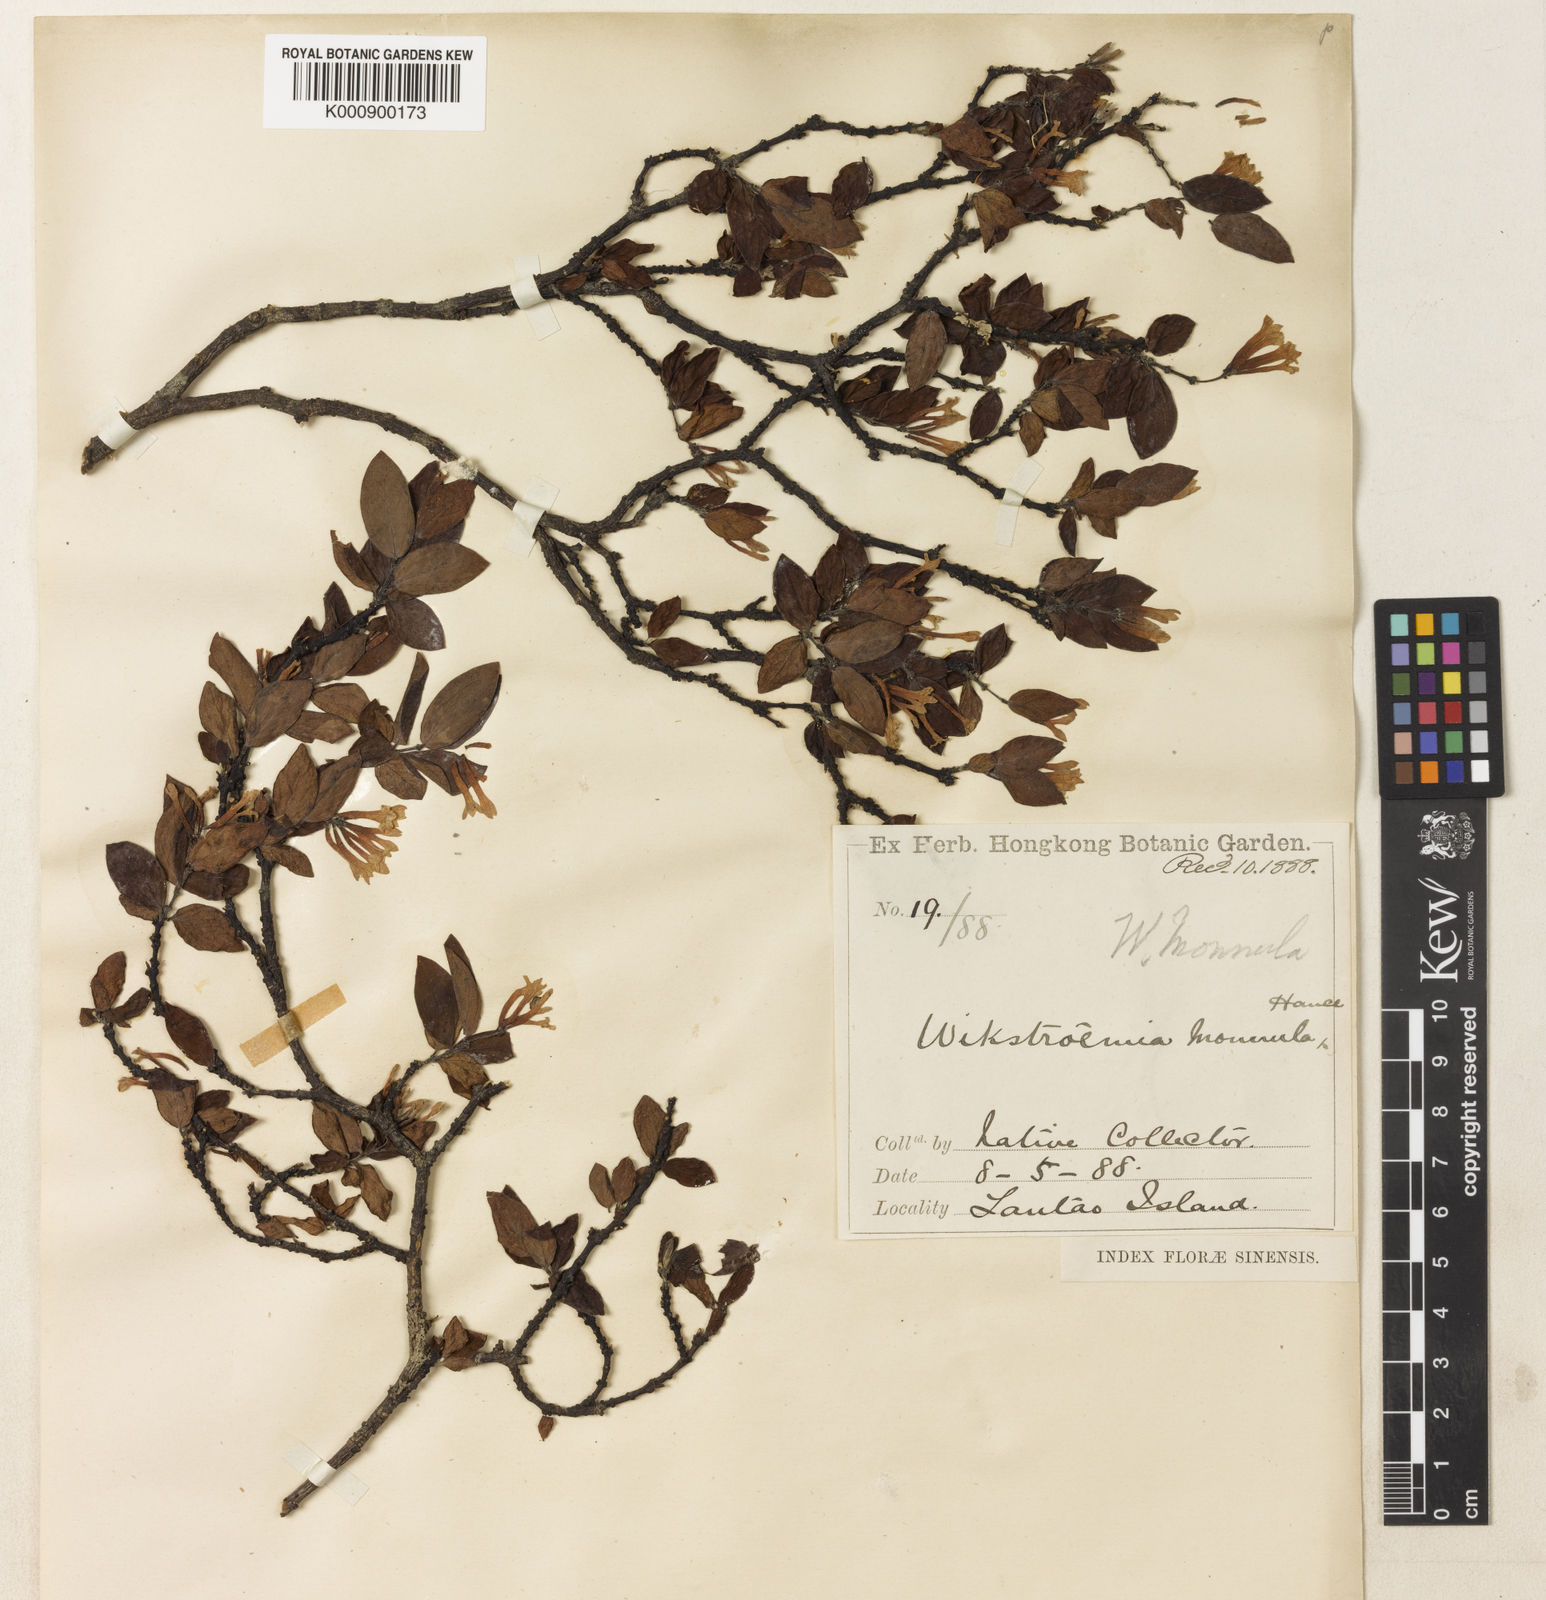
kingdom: Plantae
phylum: Tracheophyta
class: Magnoliopsida
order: Malvales
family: Thymelaeaceae
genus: Wikstroemia
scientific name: Wikstroemia monnula
